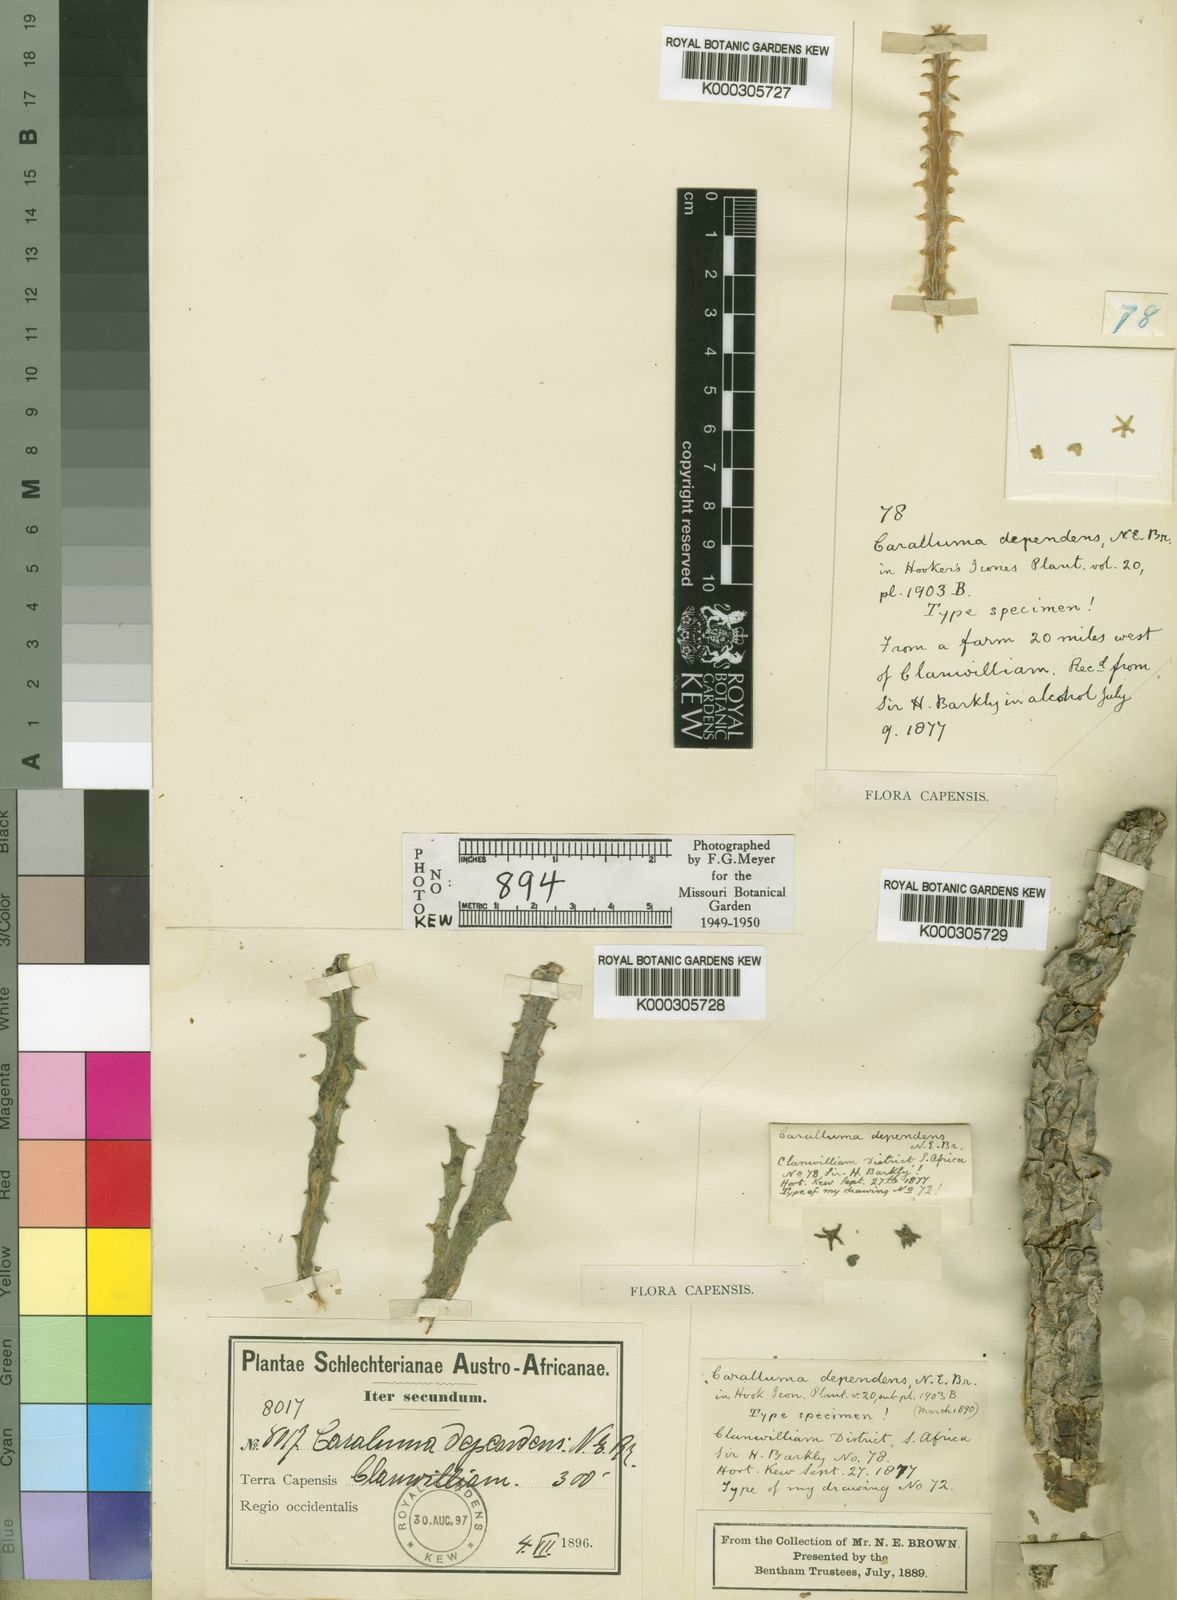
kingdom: Plantae
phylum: Tracheophyta
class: Magnoliopsida
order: Gentianales
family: Apocynaceae
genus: Ceropegia
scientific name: Ceropegia parvioriflora
